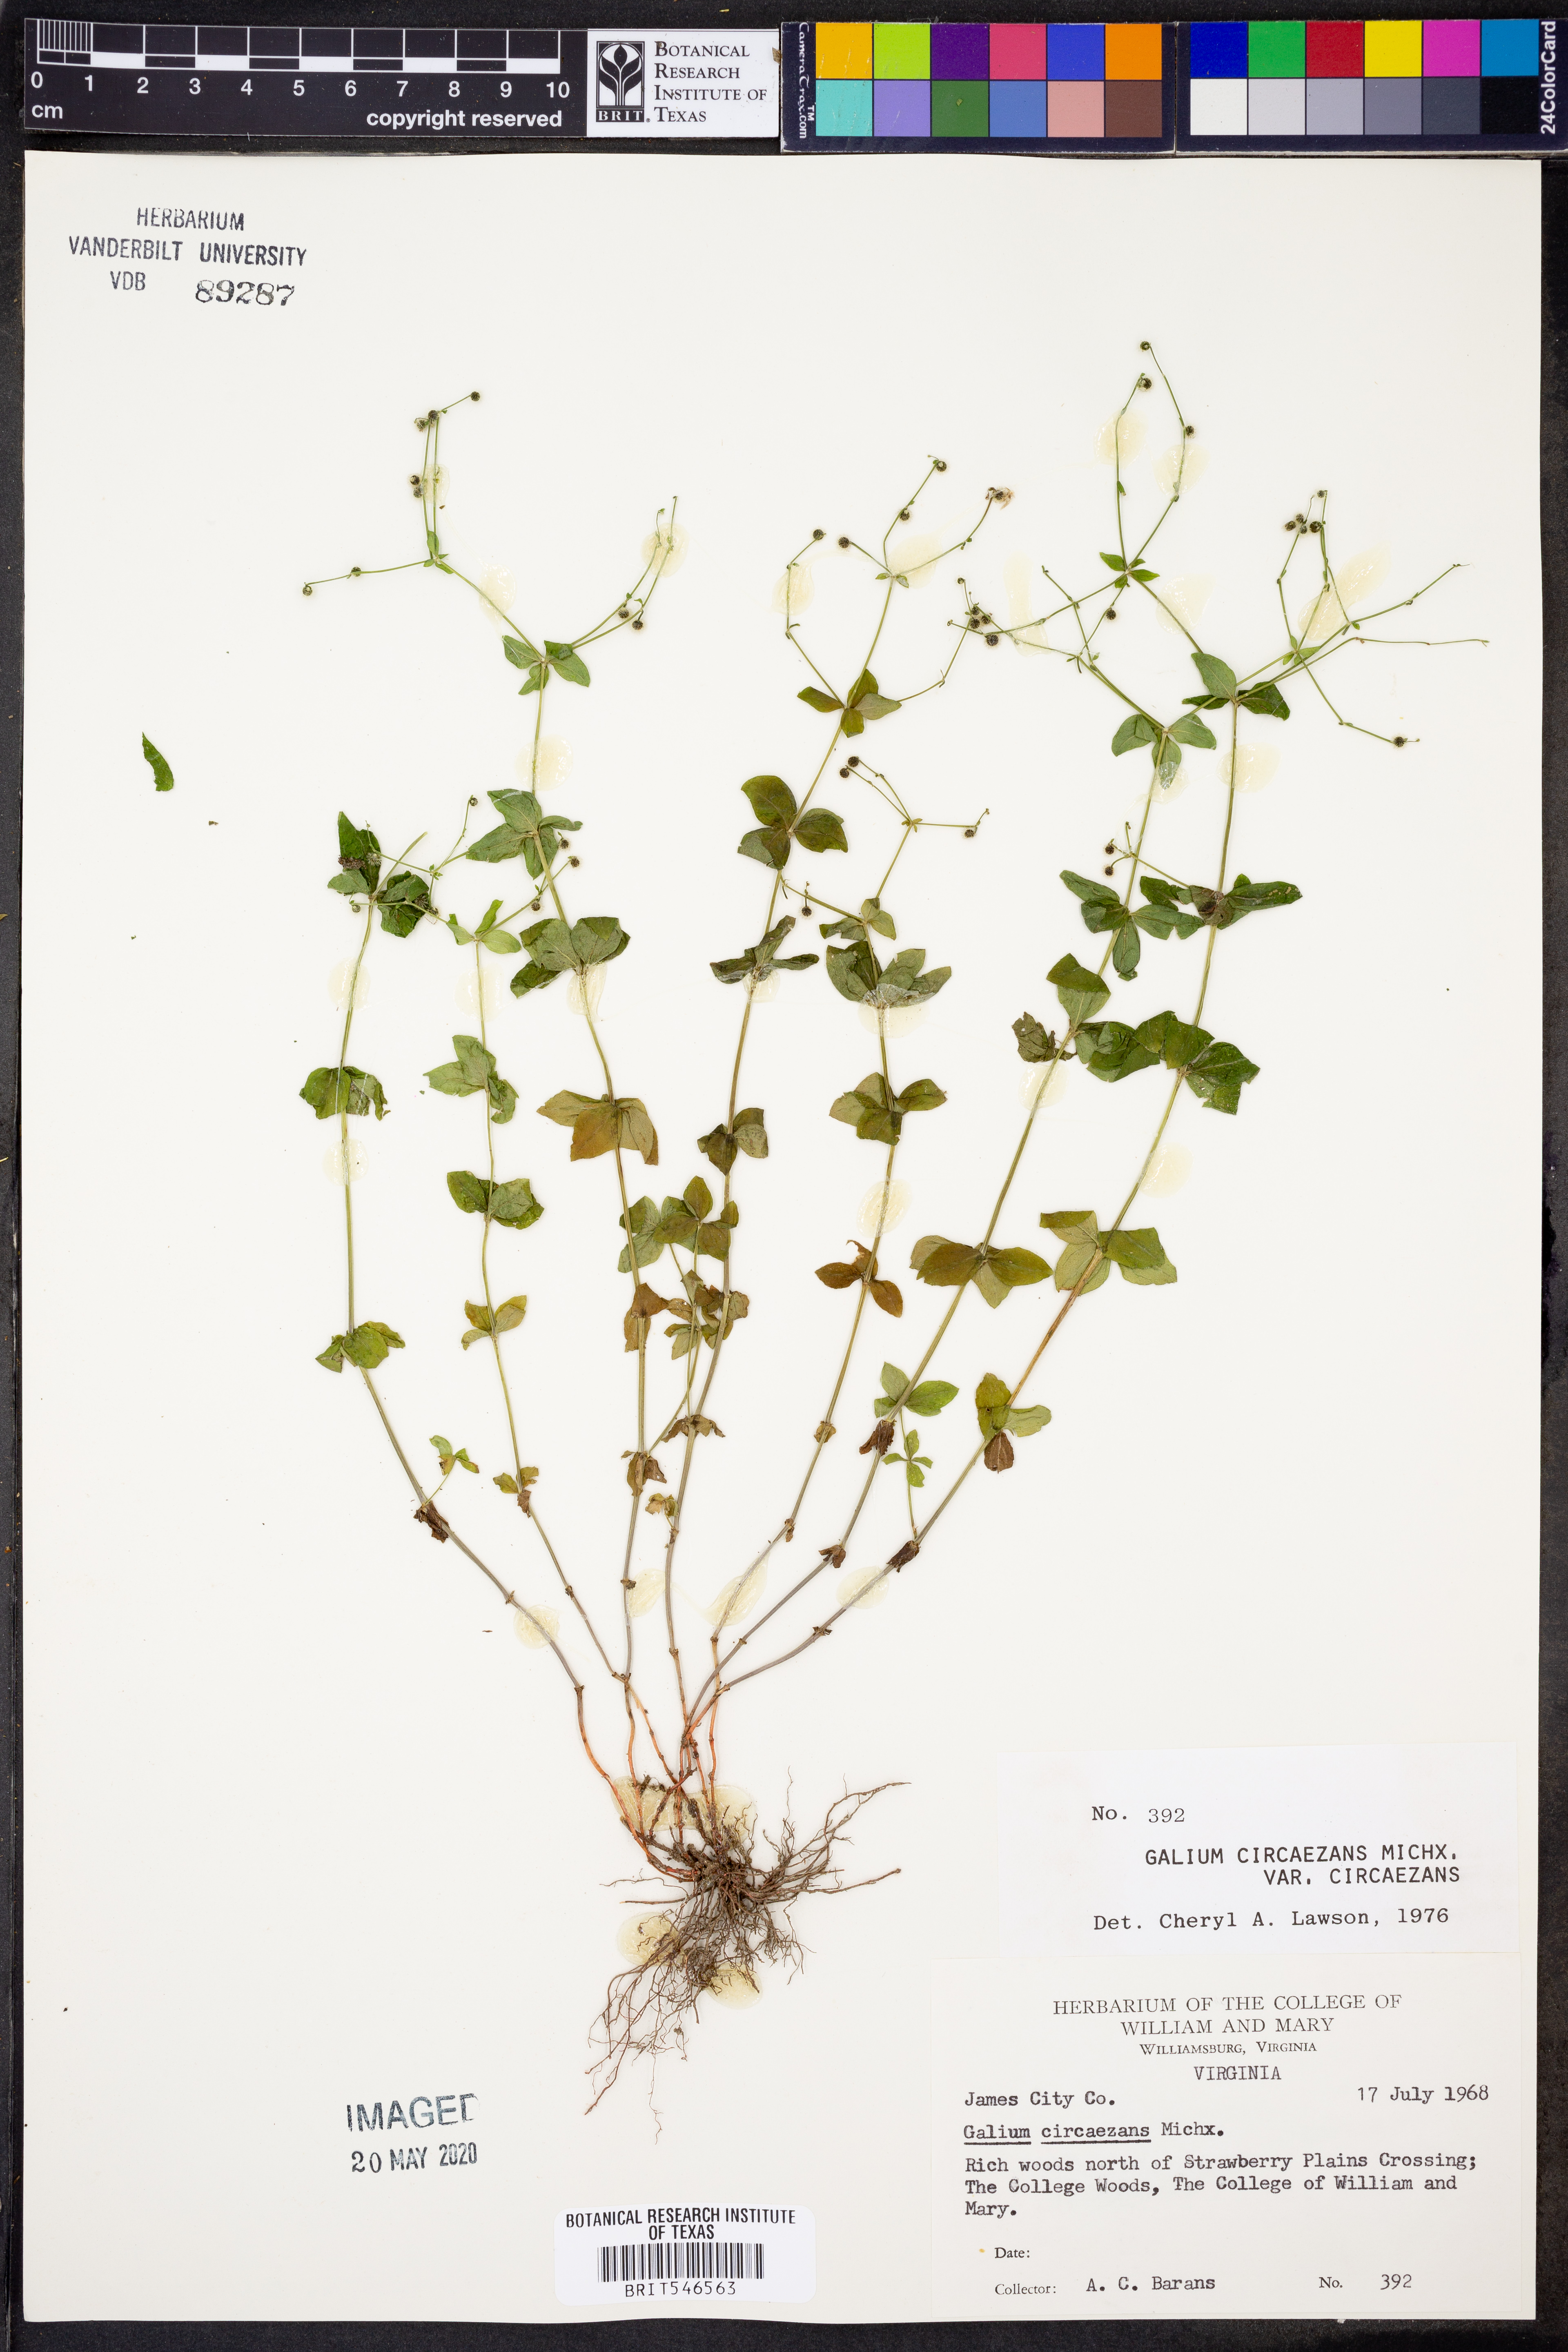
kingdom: Plantae
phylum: Tracheophyta
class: Magnoliopsida
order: Gentianales
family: Rubiaceae
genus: Galium
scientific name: Galium circaezans
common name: Forest bedstraw
